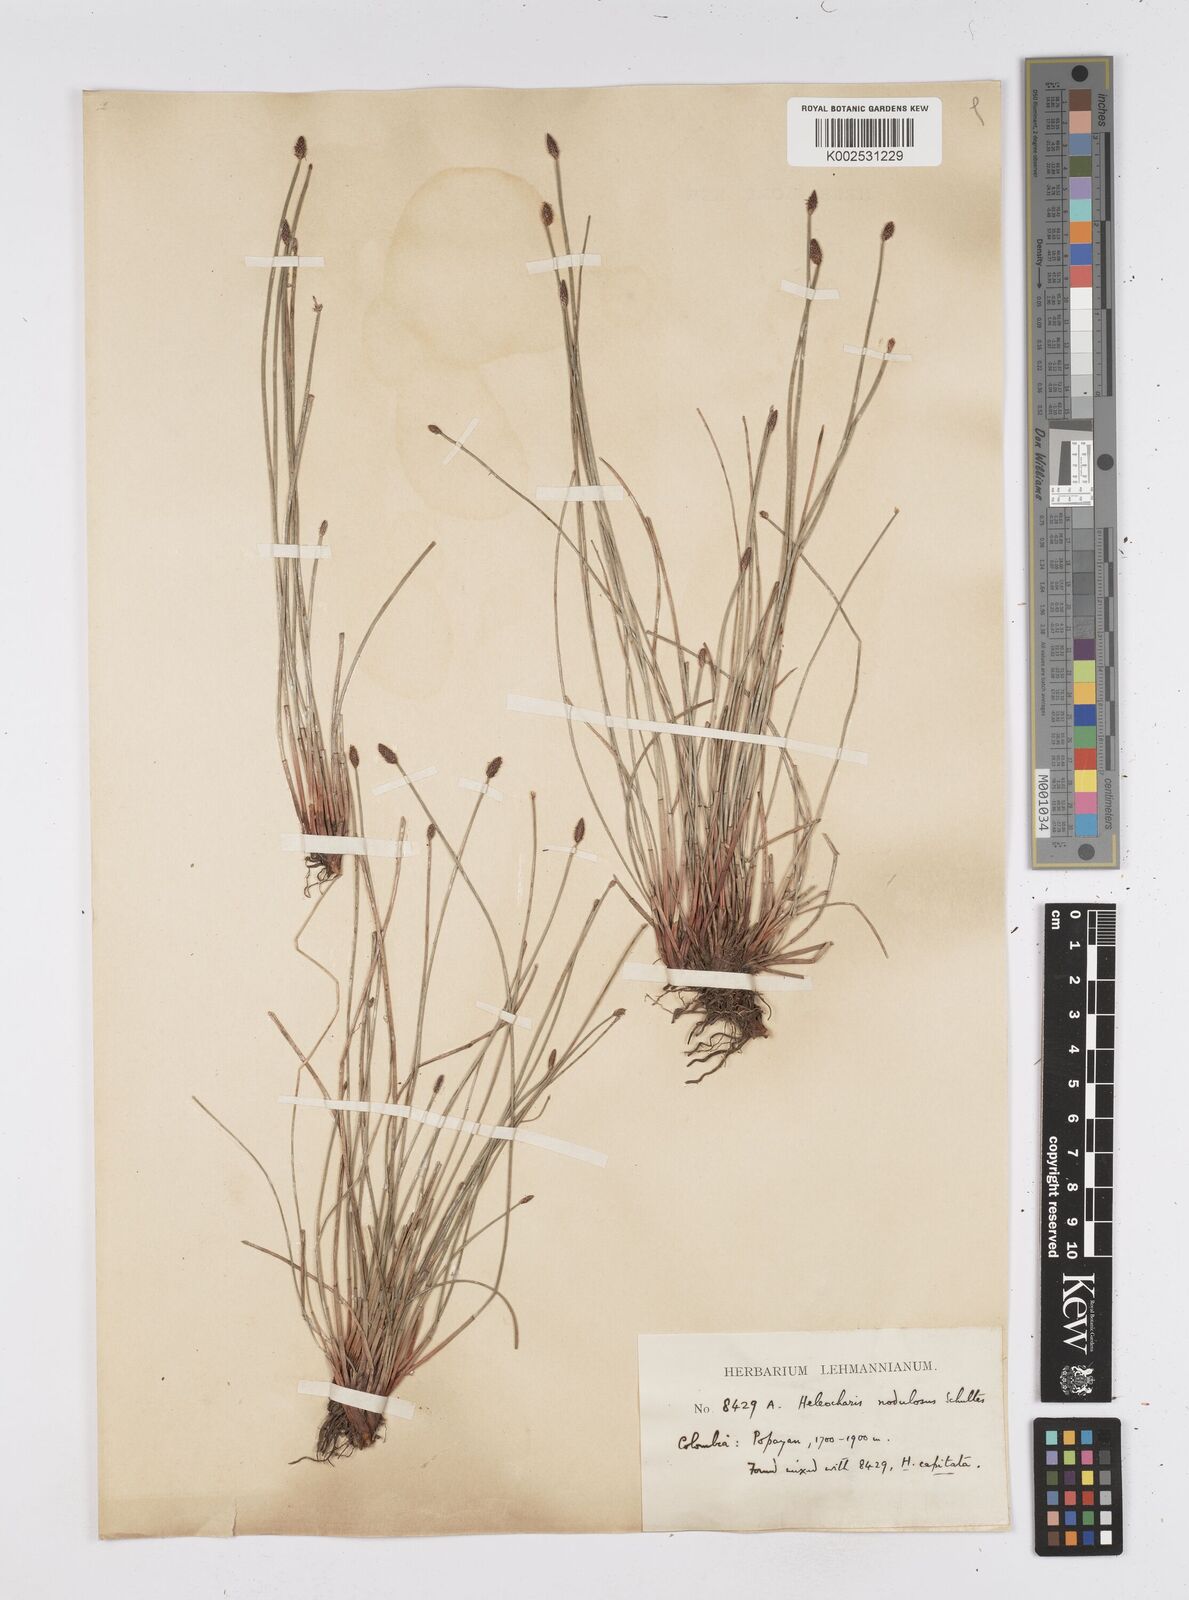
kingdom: Plantae
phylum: Tracheophyta
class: Liliopsida
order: Poales
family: Cyperaceae
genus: Eleocharis
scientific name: Eleocharis montana
